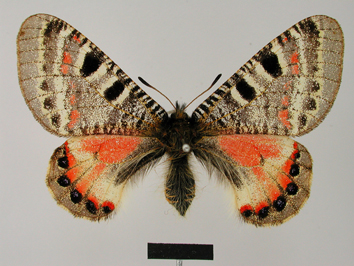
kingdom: Animalia
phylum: Arthropoda
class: Insecta
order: Lepidoptera
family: Papilionidae
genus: Archon
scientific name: Archon apollinus
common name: False apollo
